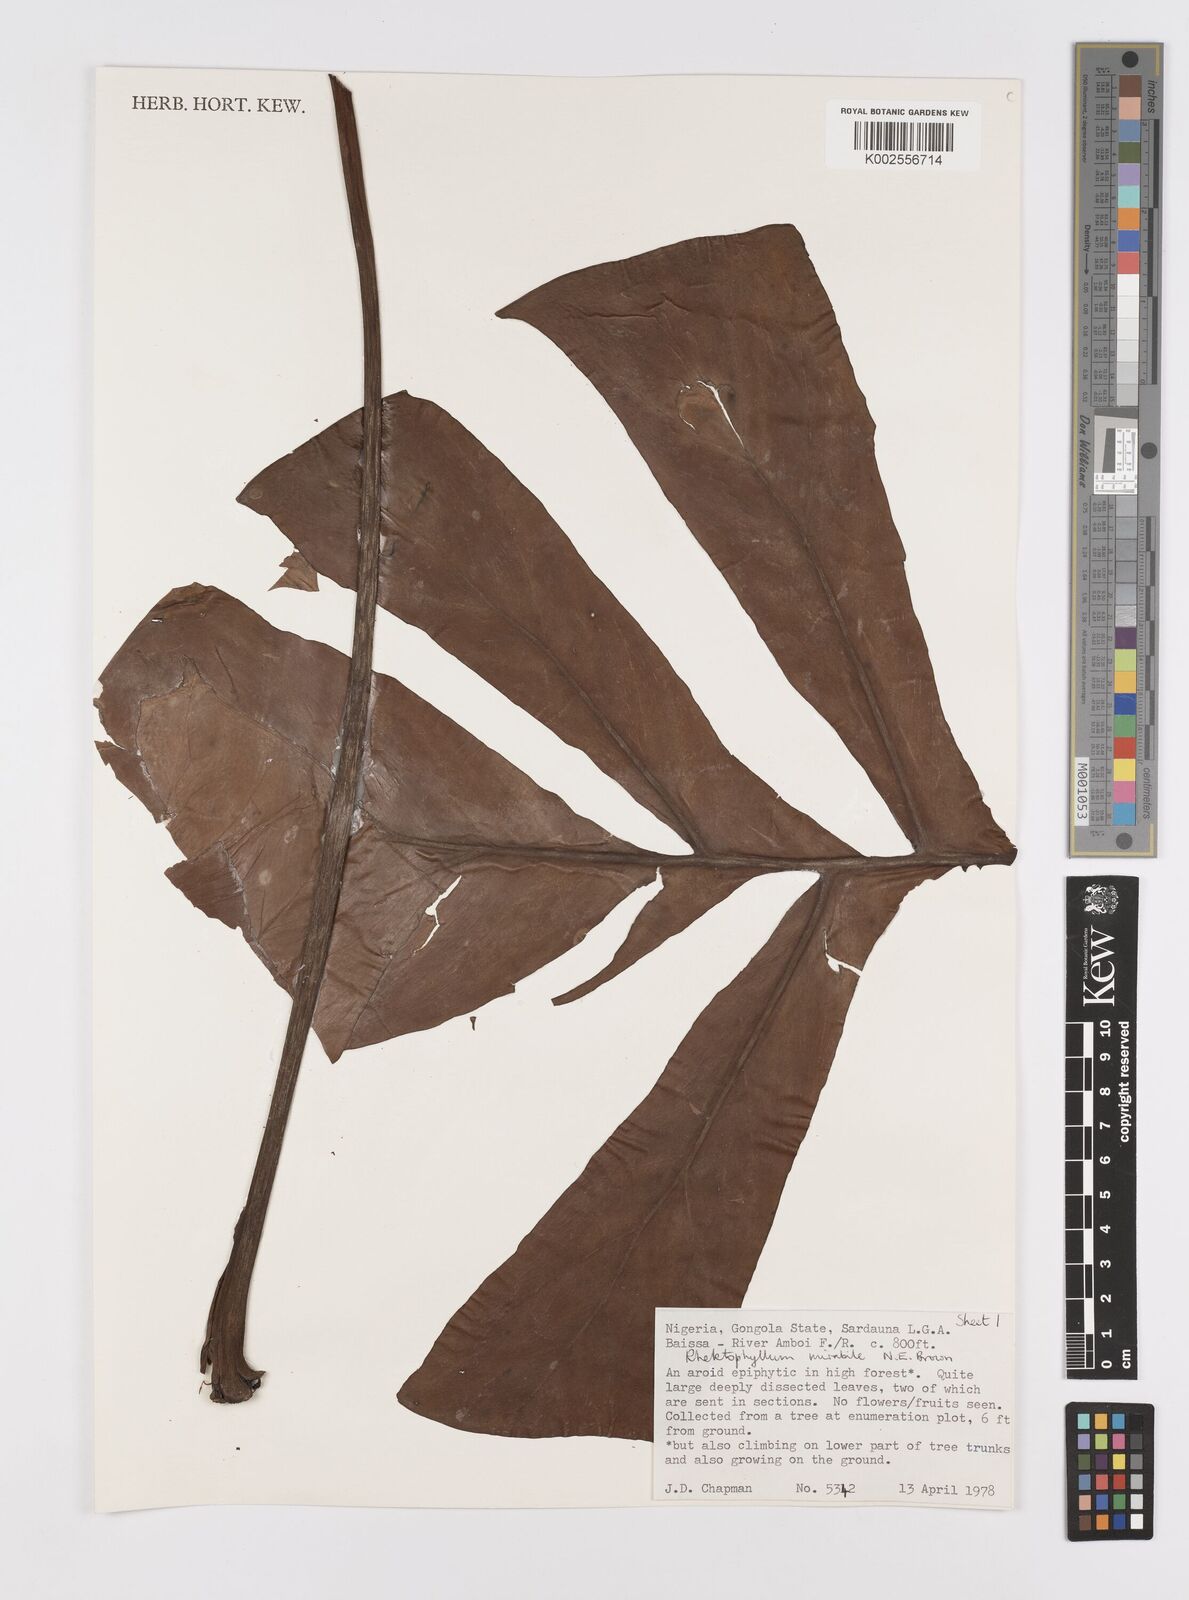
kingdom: Plantae
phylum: Tracheophyta
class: Liliopsida
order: Alismatales
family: Araceae
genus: Cercestis
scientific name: Cercestis mirabilis
